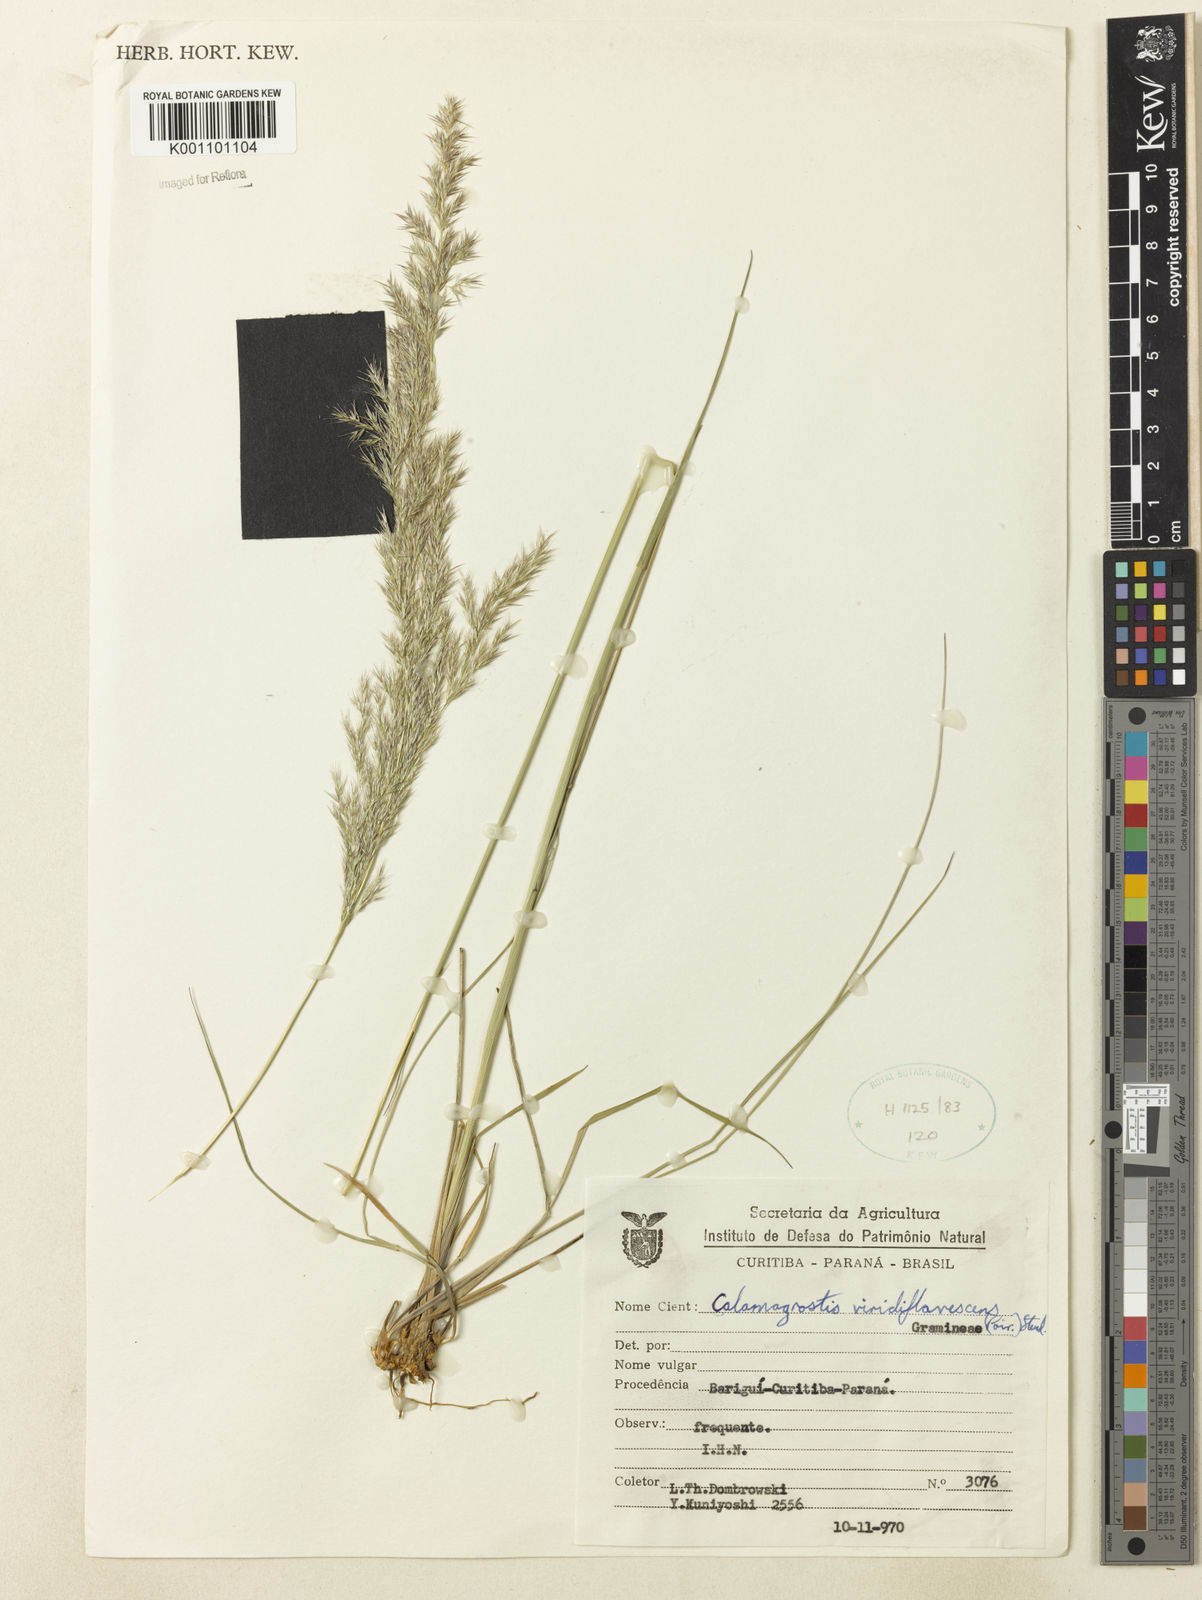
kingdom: Plantae
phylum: Tracheophyta
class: Liliopsida
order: Poales
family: Poaceae
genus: Cinnagrostis
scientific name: Cinnagrostis viridiflavescens
